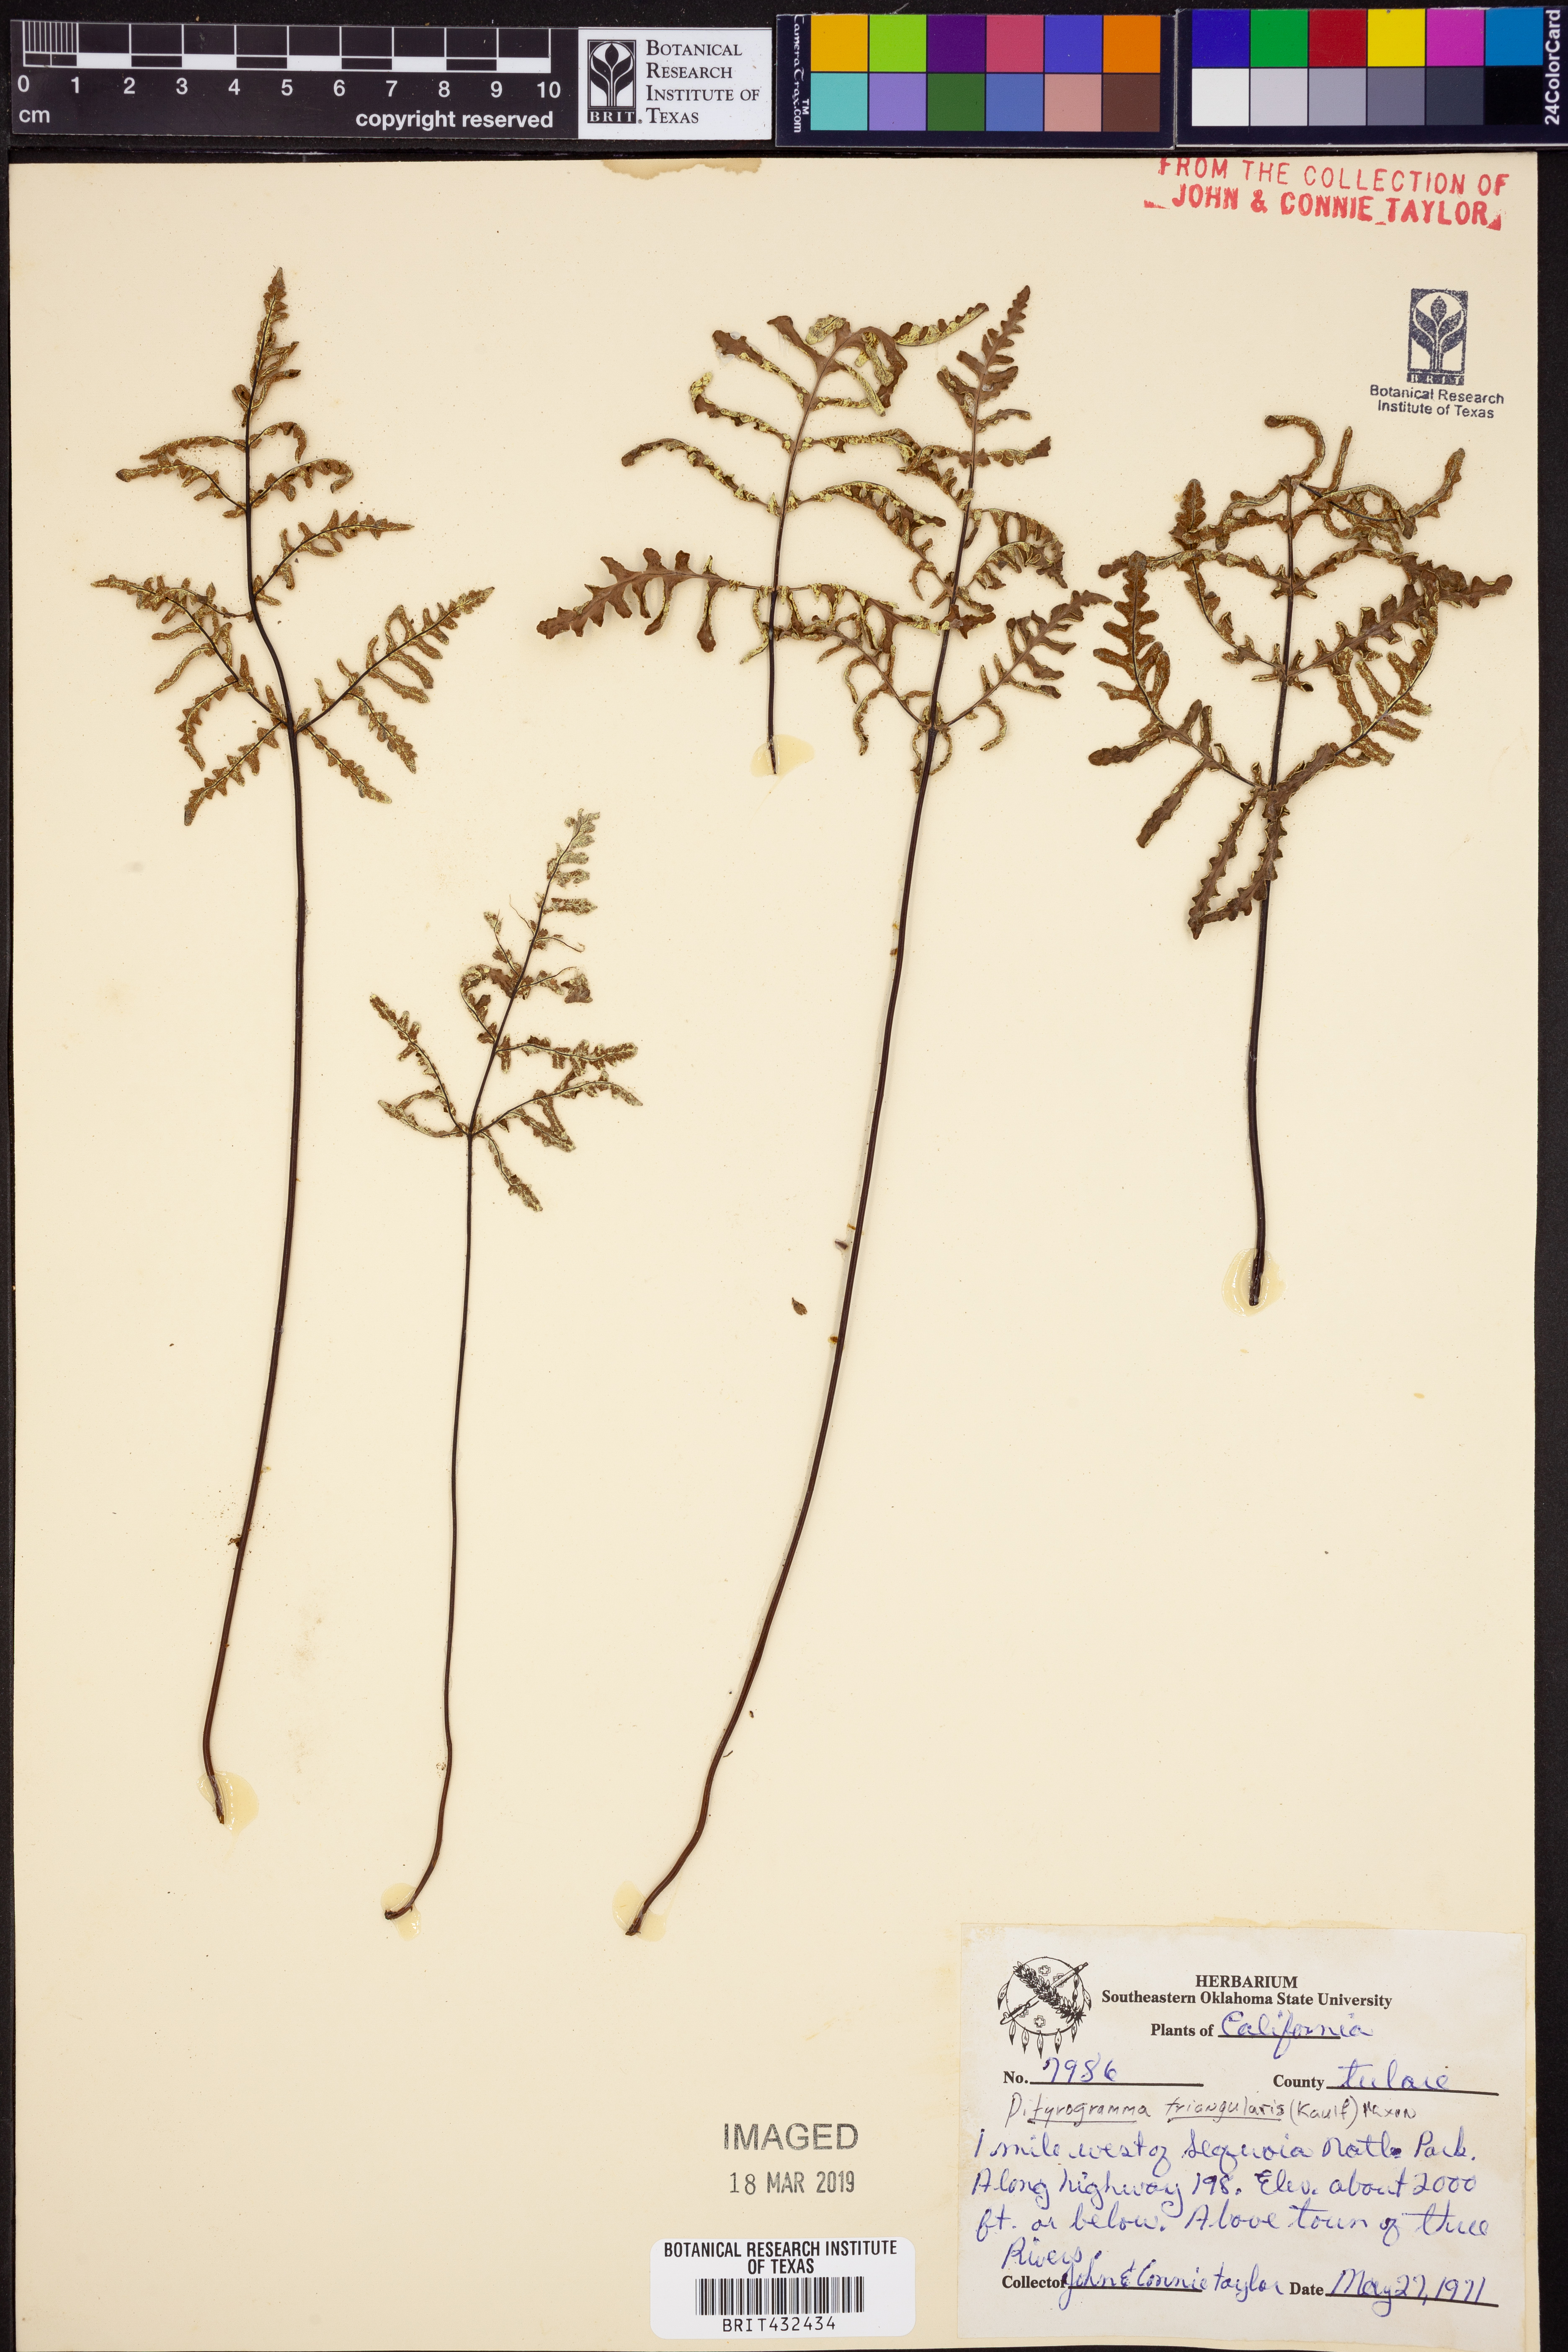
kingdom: Plantae
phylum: Tracheophyta
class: Polypodiopsida
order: Polypodiales
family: Pteridaceae
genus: Pentagramma
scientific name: Pentagramma triangularis
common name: Gold fern
